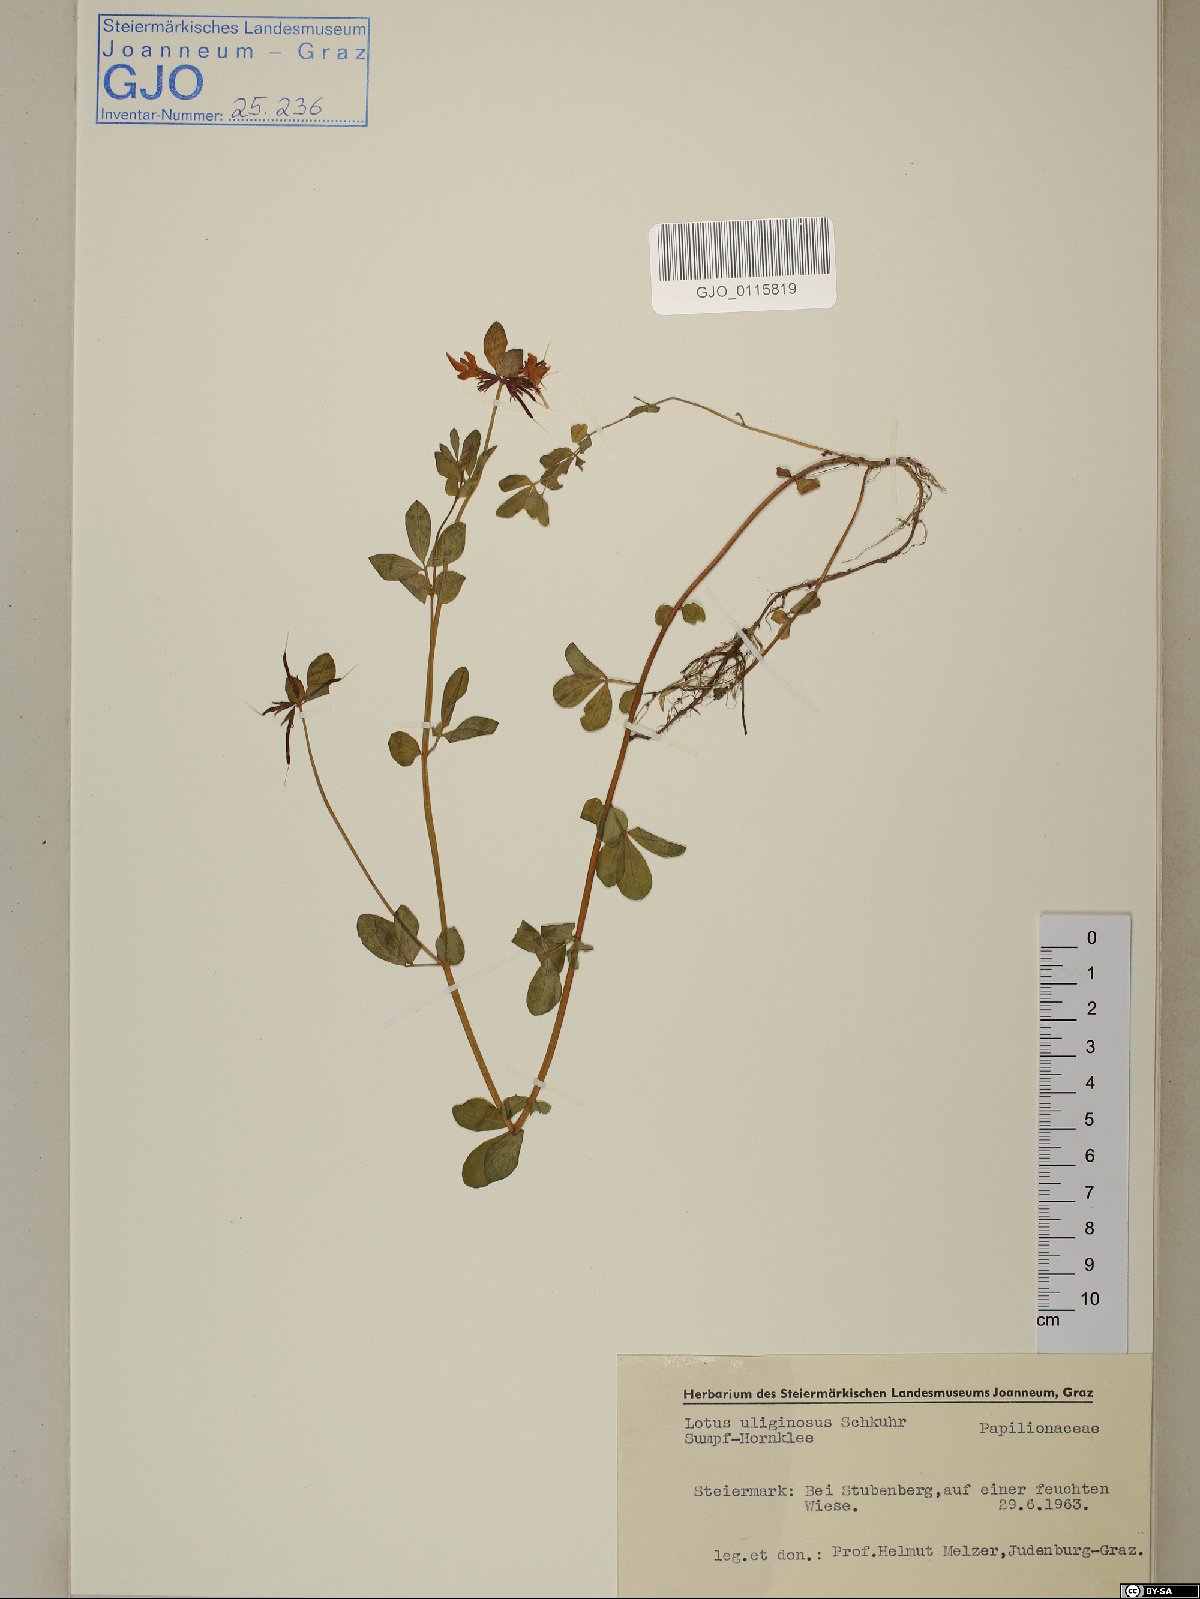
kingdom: Plantae
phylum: Tracheophyta
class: Magnoliopsida
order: Fabales
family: Fabaceae
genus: Lotus
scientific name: Lotus pedunculatus
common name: Greater birdsfoot-trefoil
